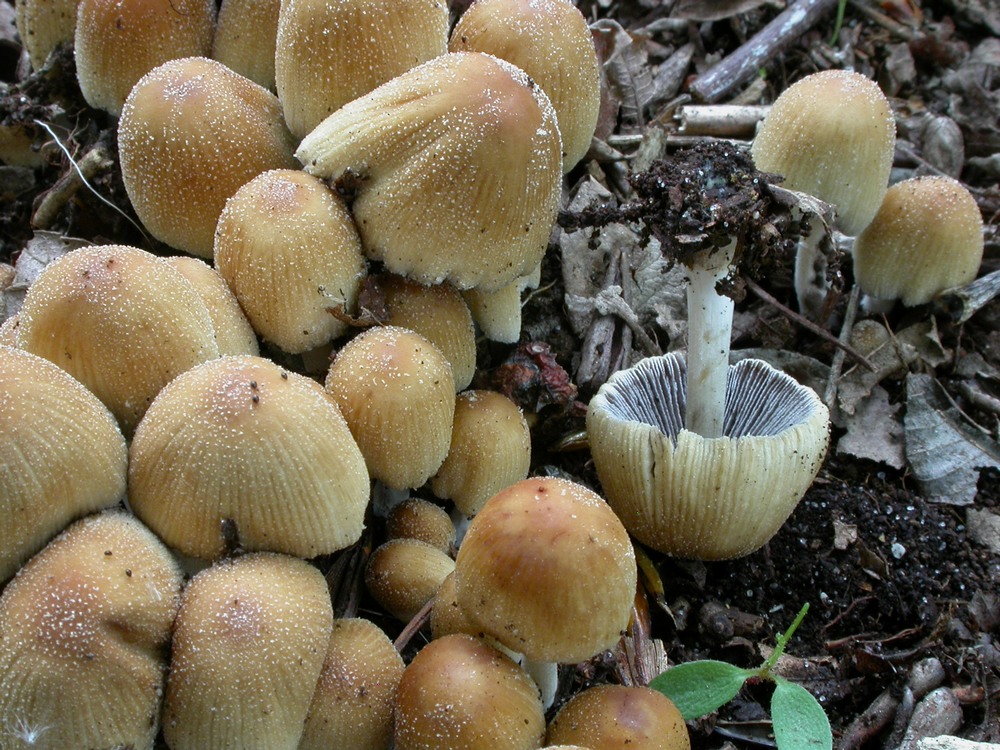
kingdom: Fungi
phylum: Basidiomycota
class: Agaricomycetes
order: Agaricales
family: Psathyrellaceae
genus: Coprinellus
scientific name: Coprinellus micaceus
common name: glimmer-blækhat
